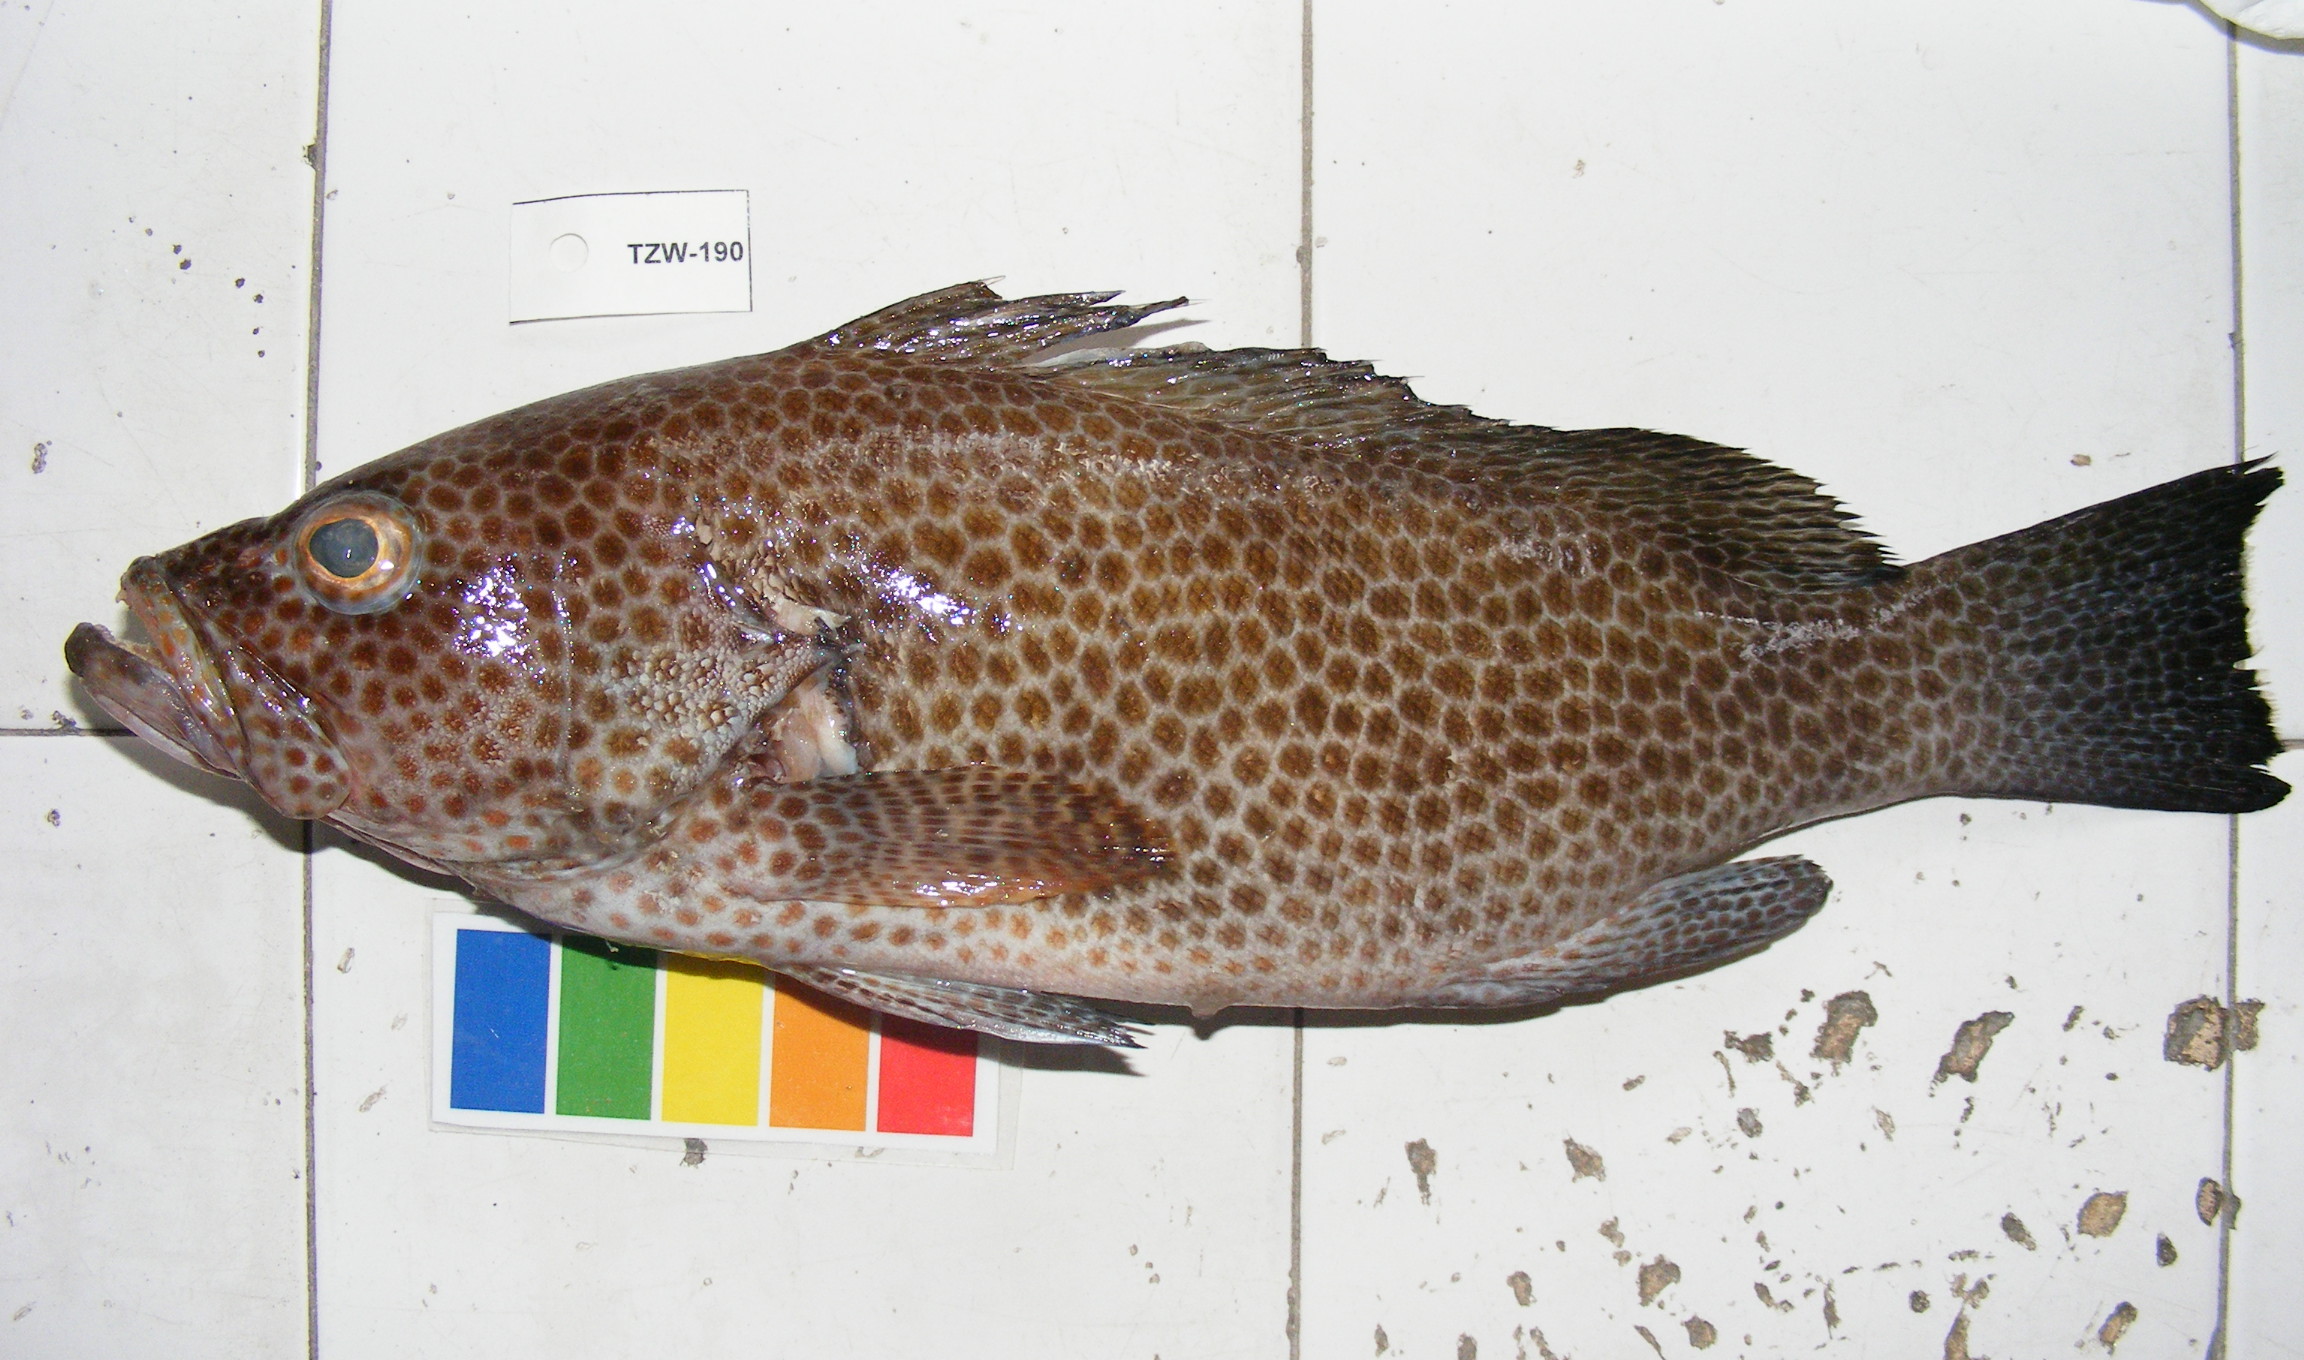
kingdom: Animalia
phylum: Chordata
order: Perciformes
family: Serranidae
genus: Epinephelus
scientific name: Epinephelus chlorostigma
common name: Brownspotted grouper
